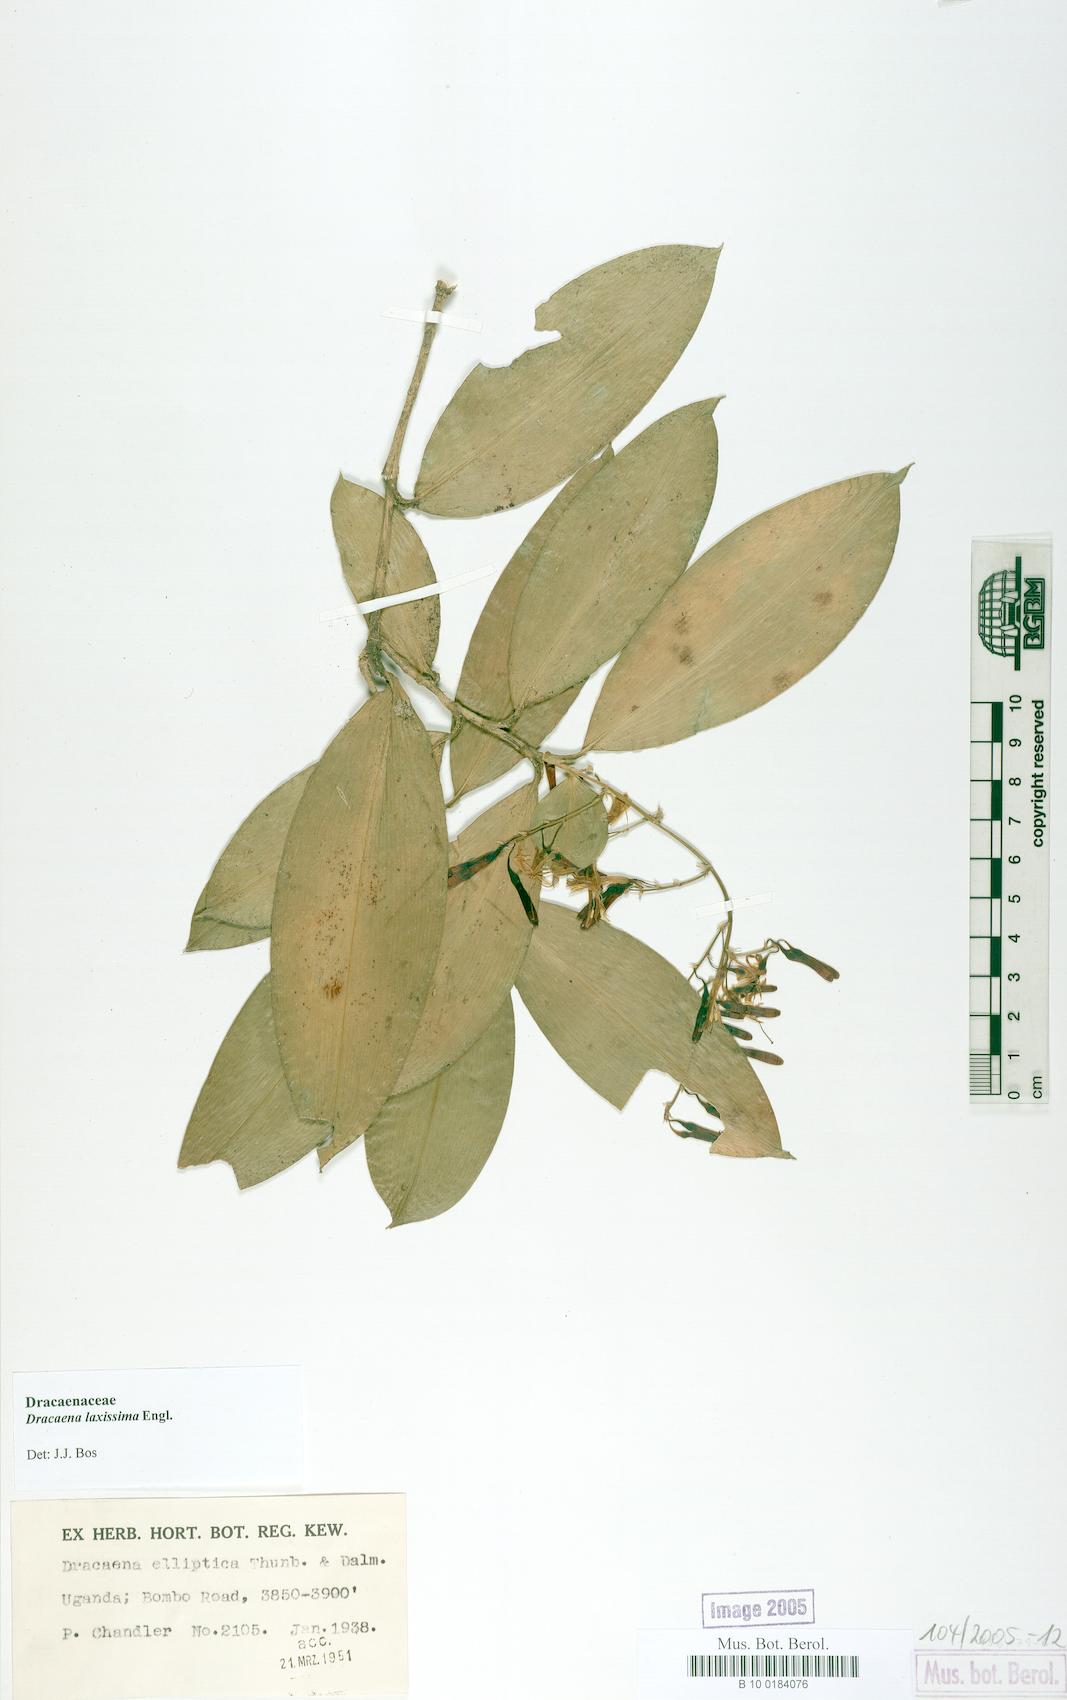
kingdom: Plantae
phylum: Tracheophyta
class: Liliopsida
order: Asparagales
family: Asparagaceae
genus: Dracaena
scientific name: Dracaena laxissima
